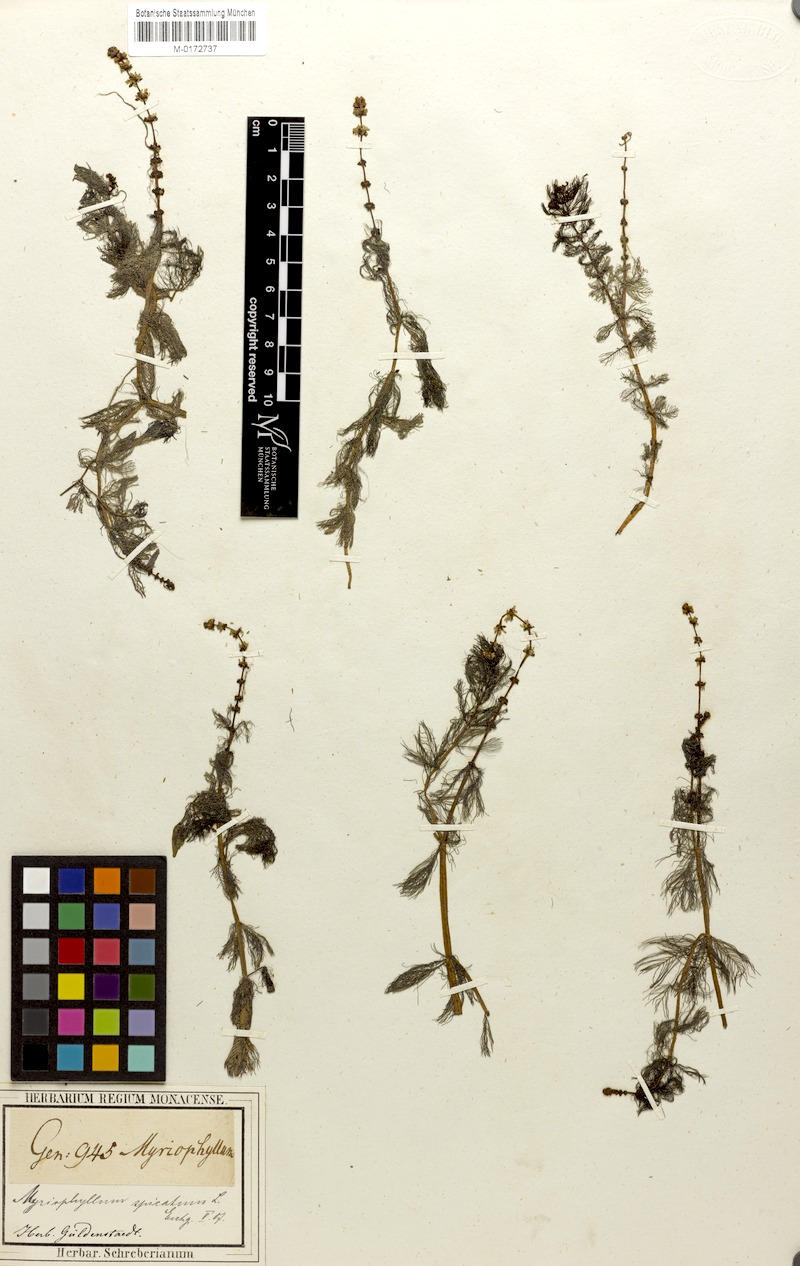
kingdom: Plantae
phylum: Tracheophyta
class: Magnoliopsida
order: Saxifragales
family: Haloragaceae
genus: Myriophyllum
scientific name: Myriophyllum spicatum
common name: Spiked water-milfoil
